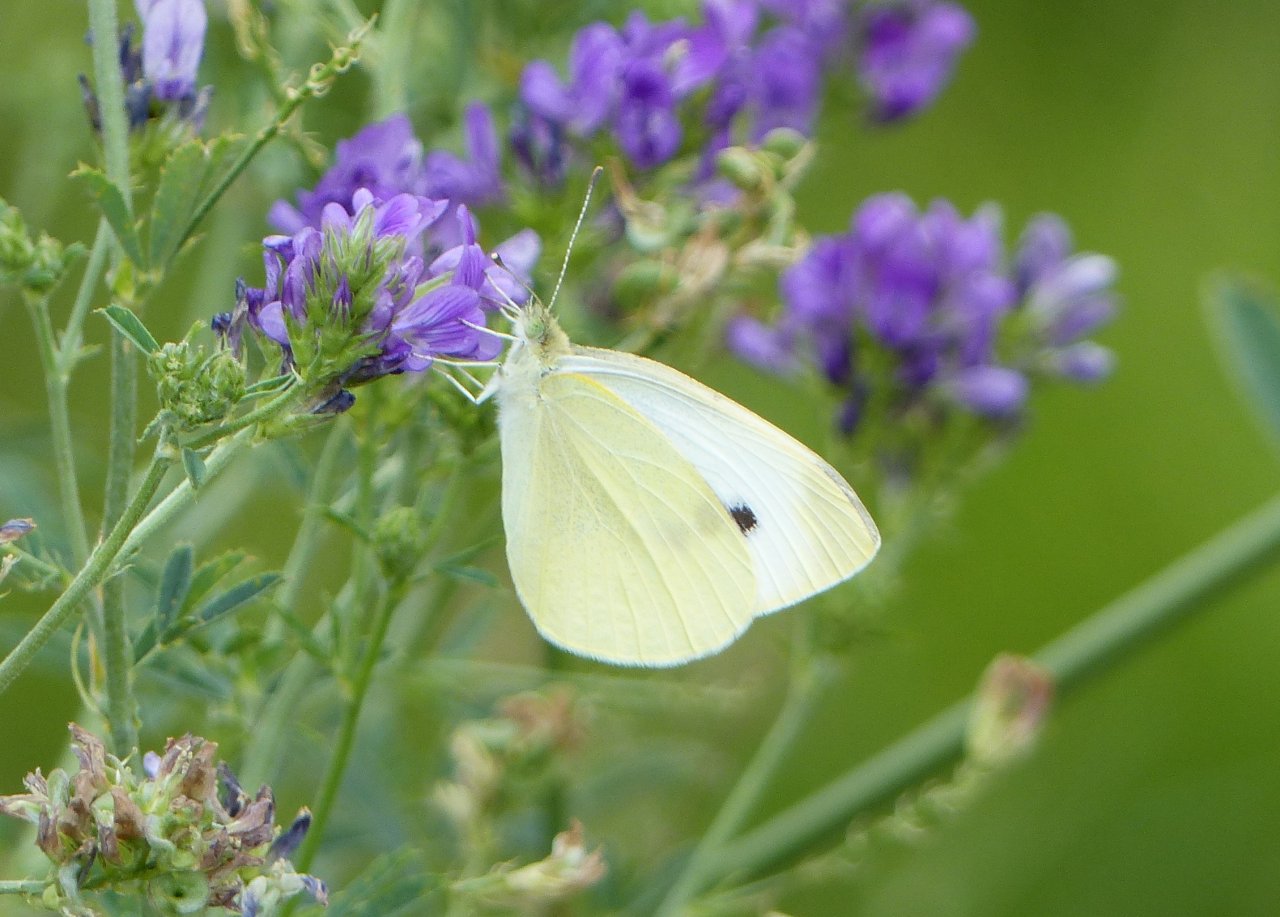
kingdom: Animalia
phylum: Arthropoda
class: Insecta
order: Lepidoptera
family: Pieridae
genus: Pieris
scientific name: Pieris rapae
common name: Cabbage White
